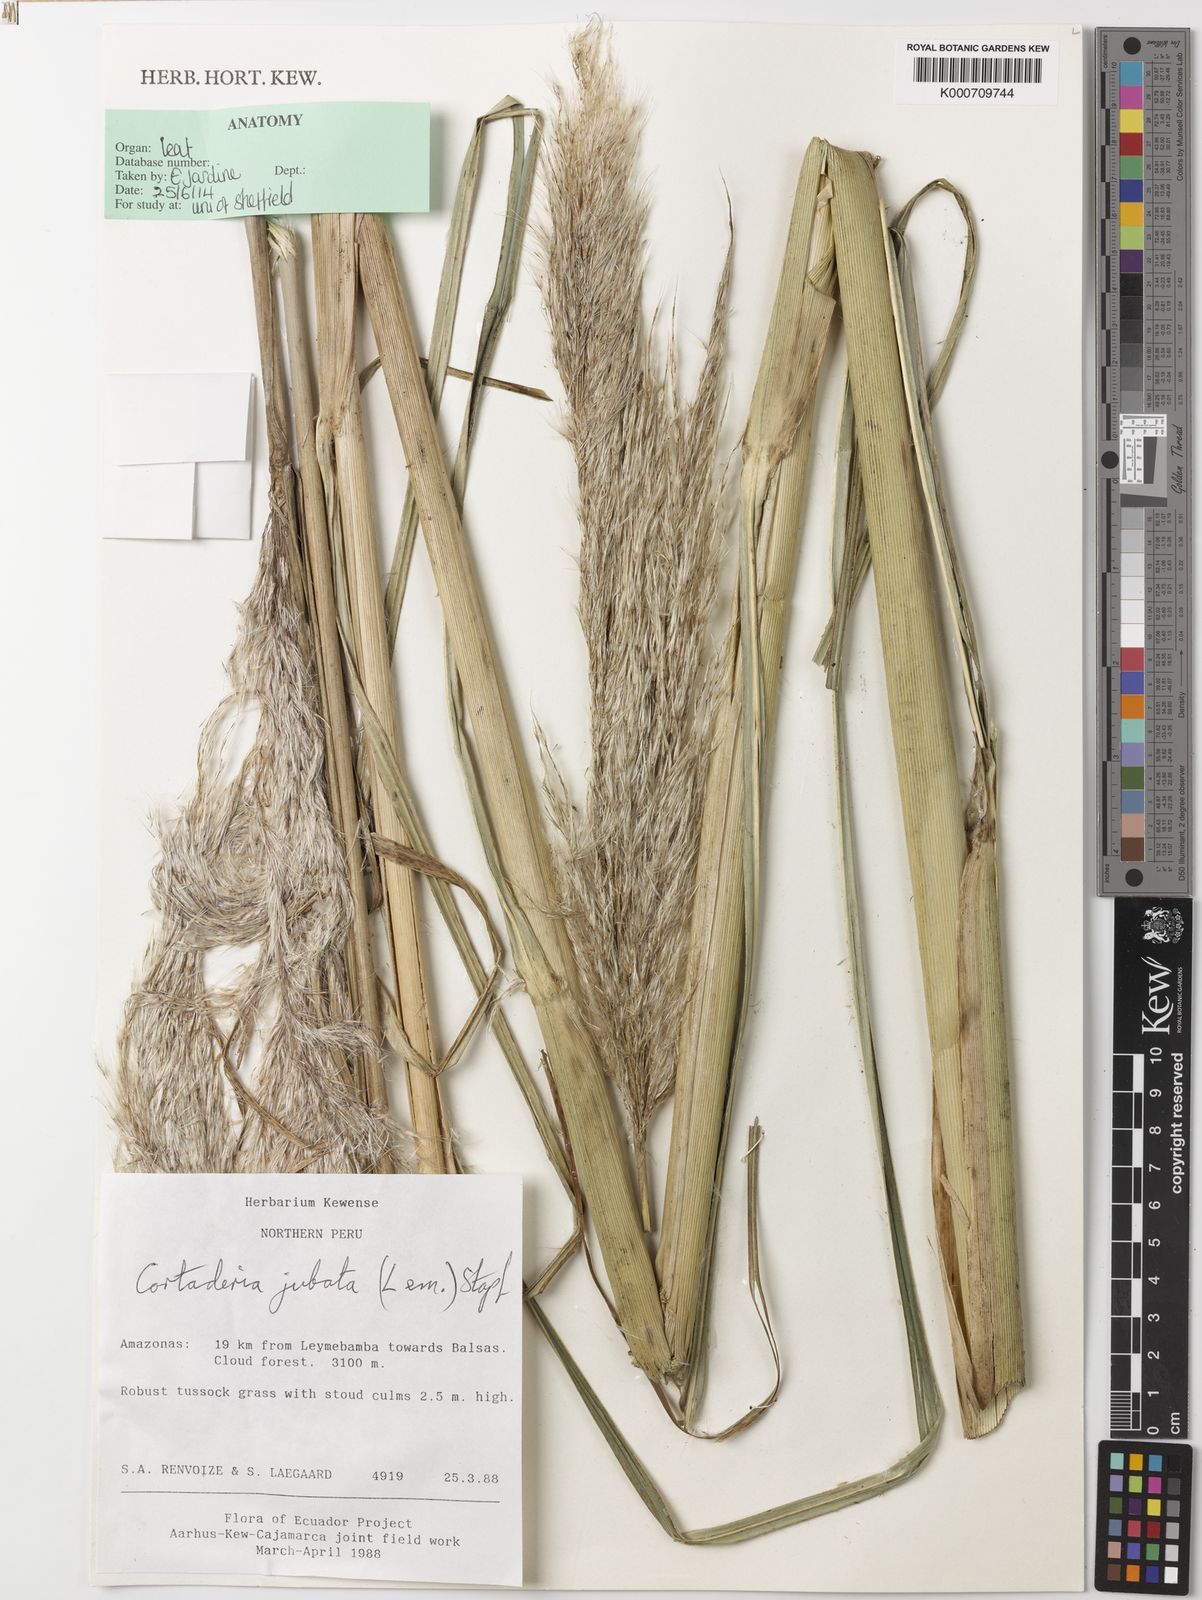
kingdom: Plantae
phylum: Tracheophyta
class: Liliopsida
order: Poales
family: Poaceae
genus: Cortaderia
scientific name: Cortaderia jubata
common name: Purple pampas grass
